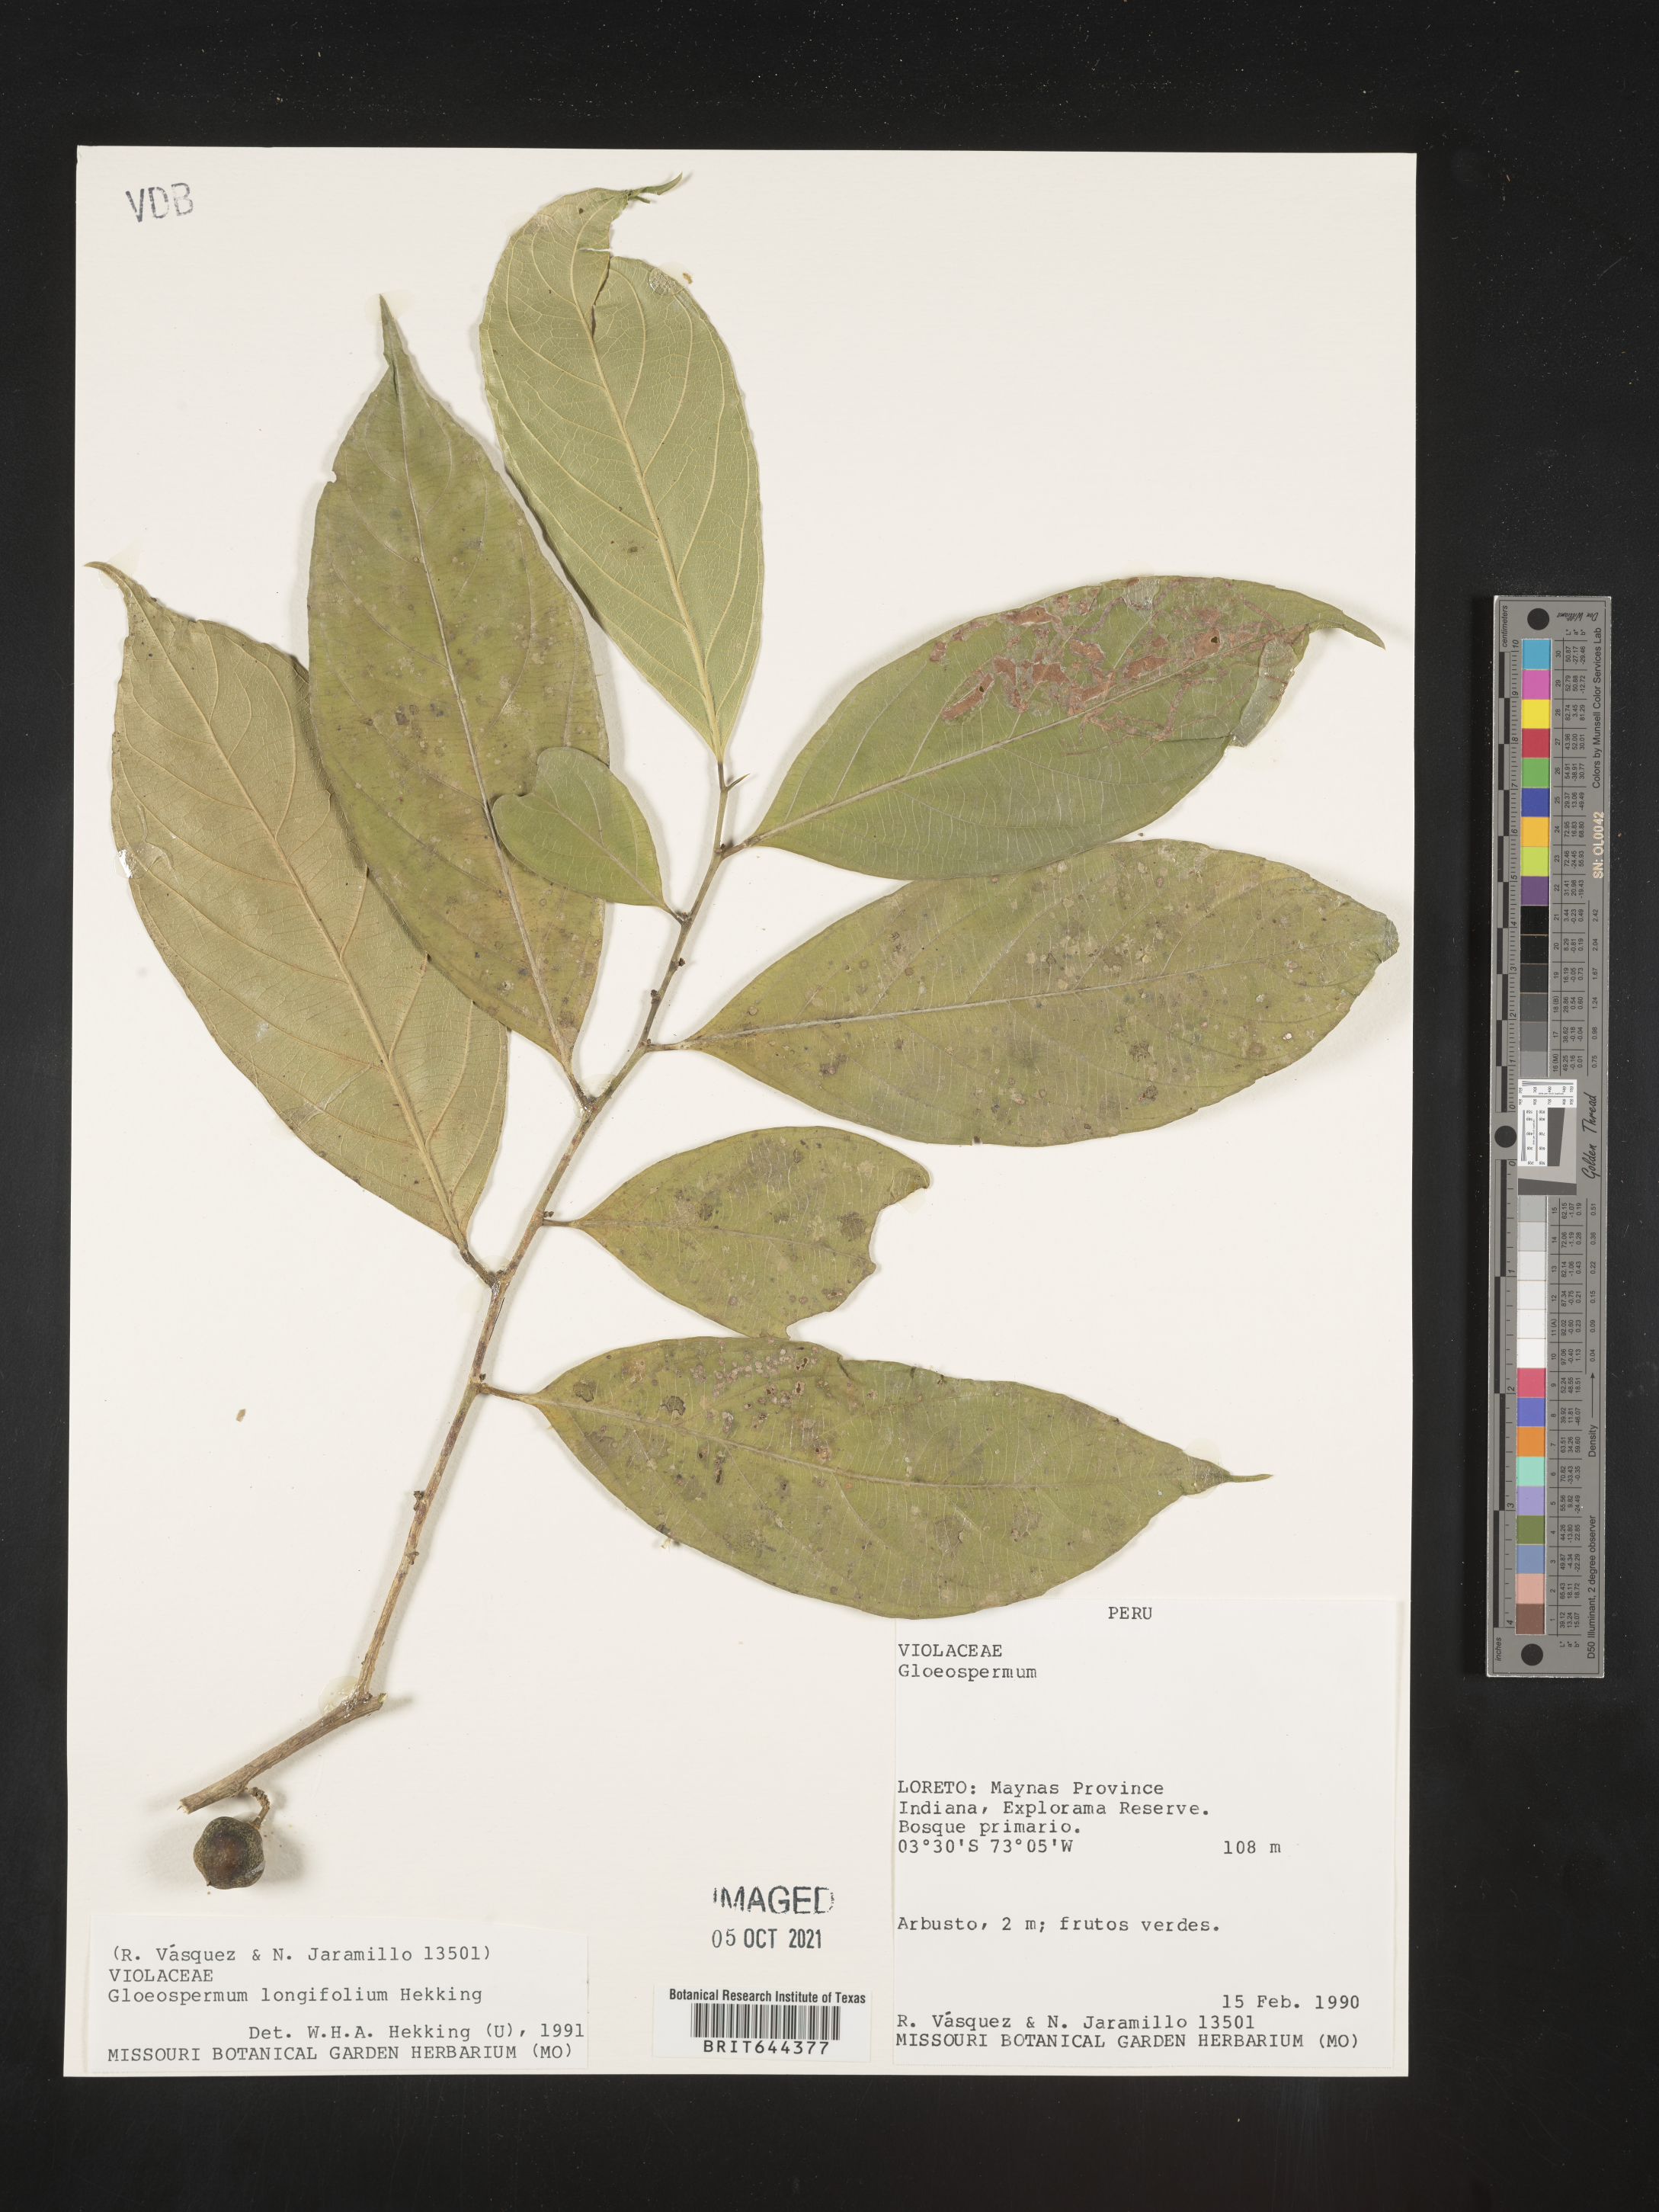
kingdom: Plantae
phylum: Tracheophyta
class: Magnoliopsida
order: Malpighiales
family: Violaceae
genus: Gloeospermum
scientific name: Gloeospermum
